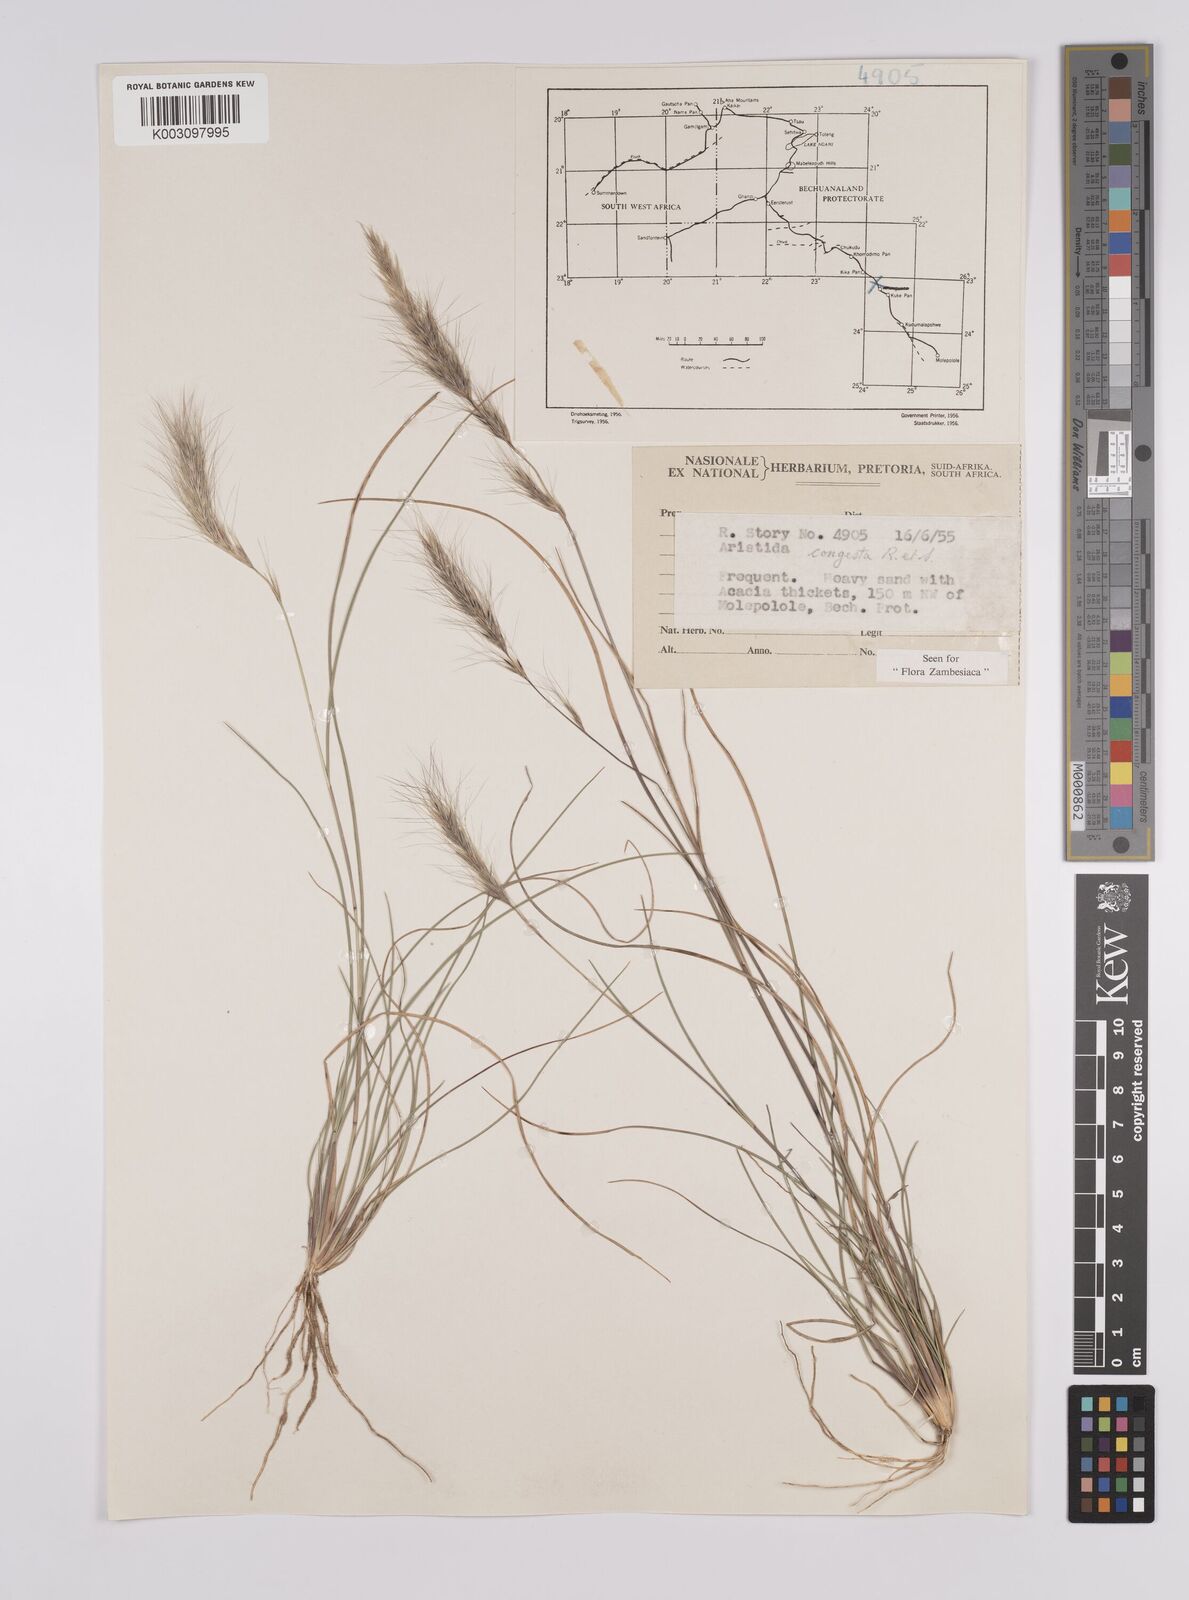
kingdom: Plantae
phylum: Tracheophyta
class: Liliopsida
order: Poales
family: Poaceae
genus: Aristida
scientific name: Aristida congesta
